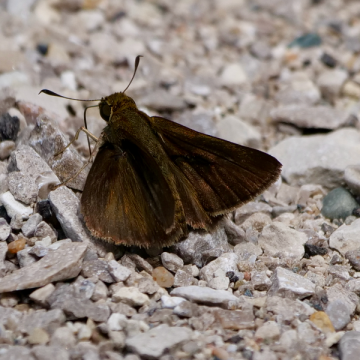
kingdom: Animalia
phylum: Arthropoda
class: Insecta
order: Lepidoptera
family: Hesperiidae
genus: Euphyes
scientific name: Euphyes vestris
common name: Dun Skipper
